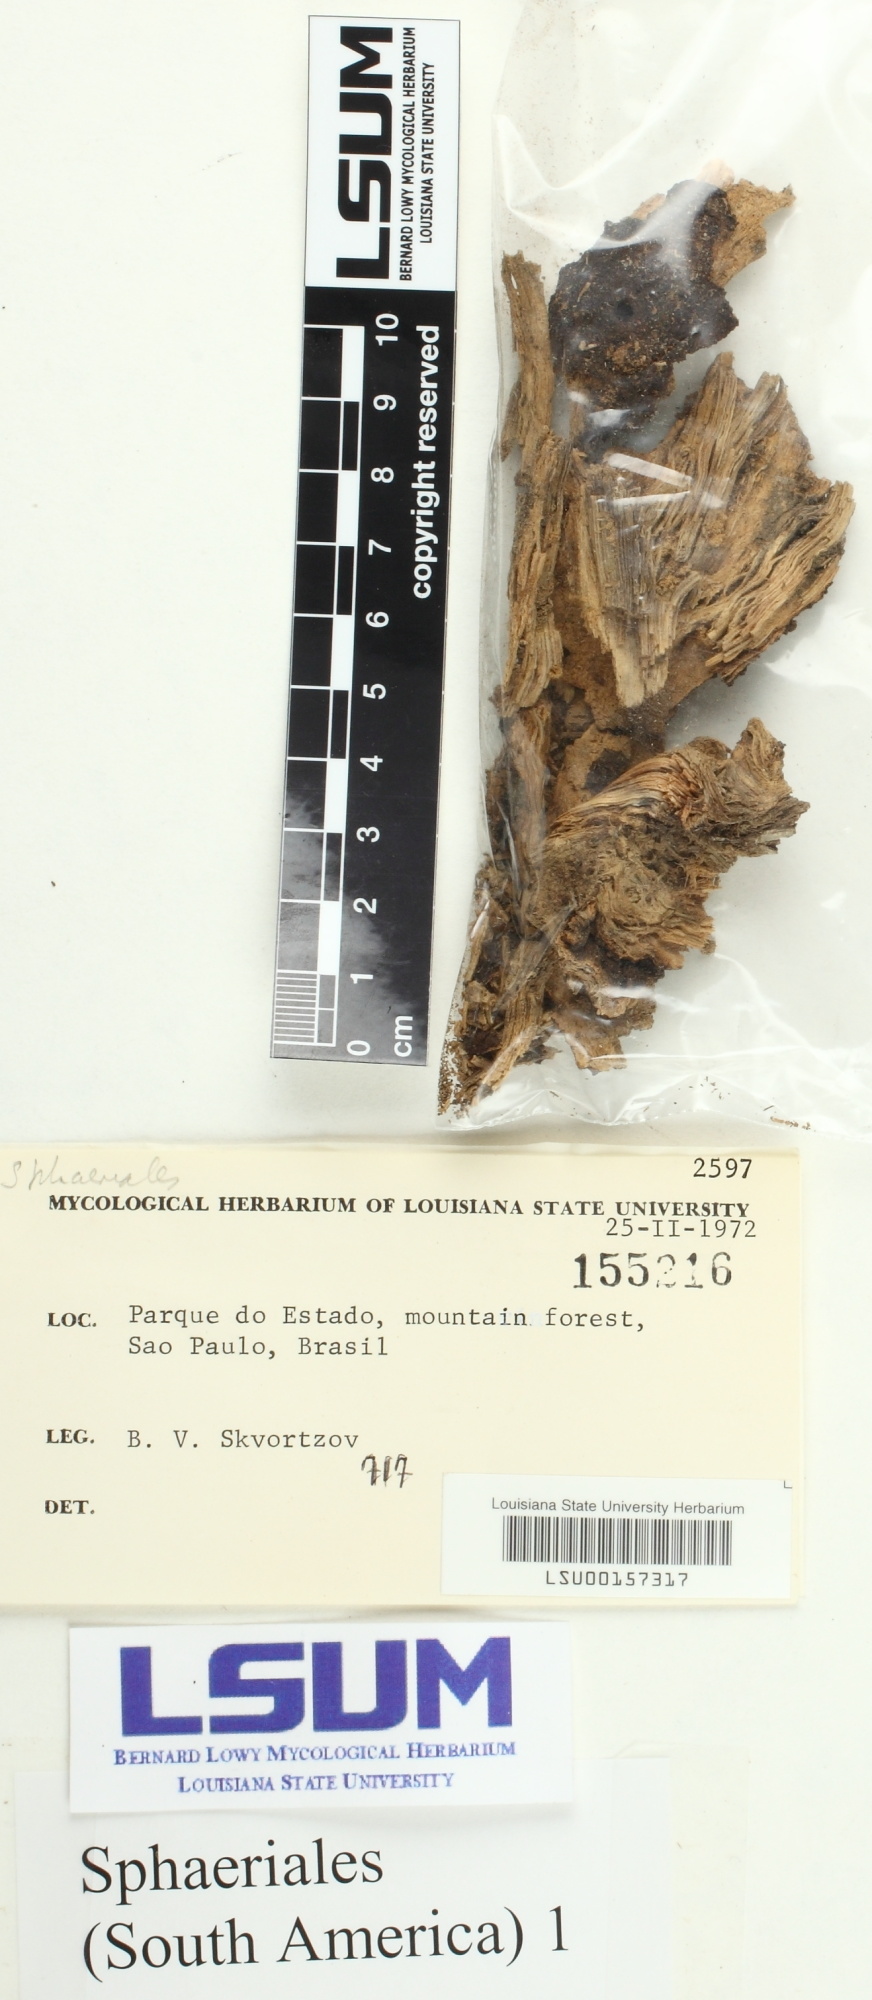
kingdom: Fungi
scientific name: Fungi
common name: Fungi
